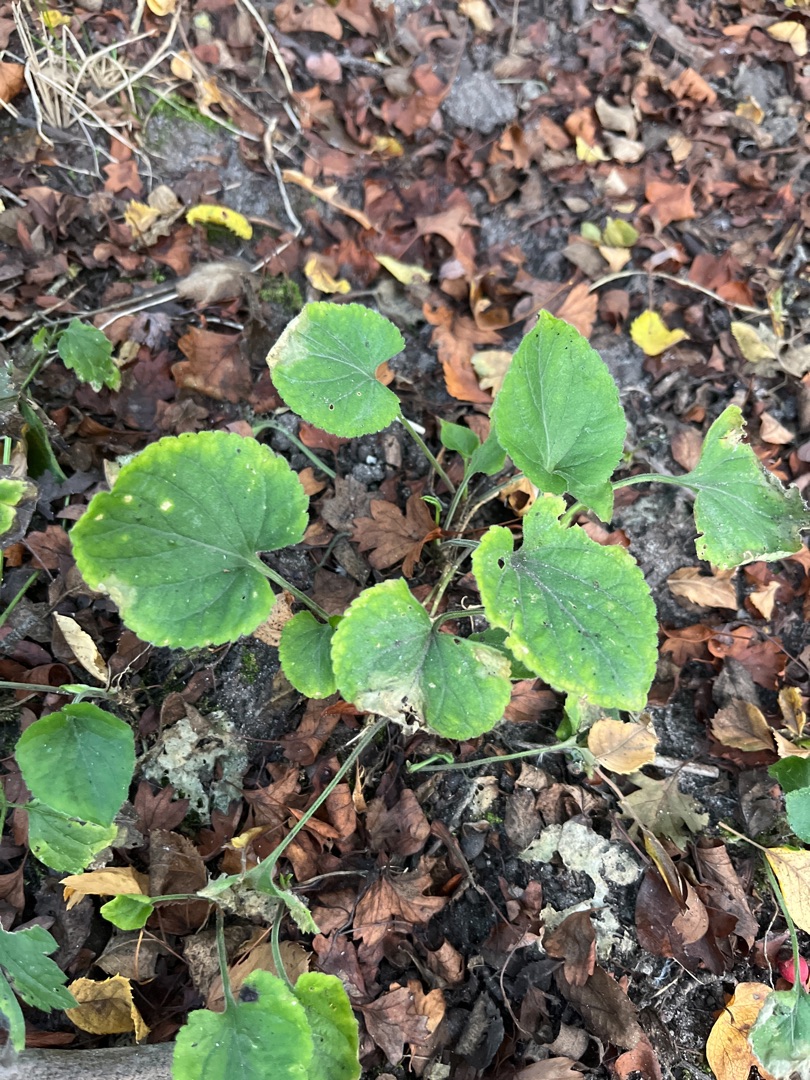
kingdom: Plantae
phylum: Tracheophyta
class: Magnoliopsida
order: Malpighiales
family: Violaceae
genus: Viola
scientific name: Viola
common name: Violslægten
